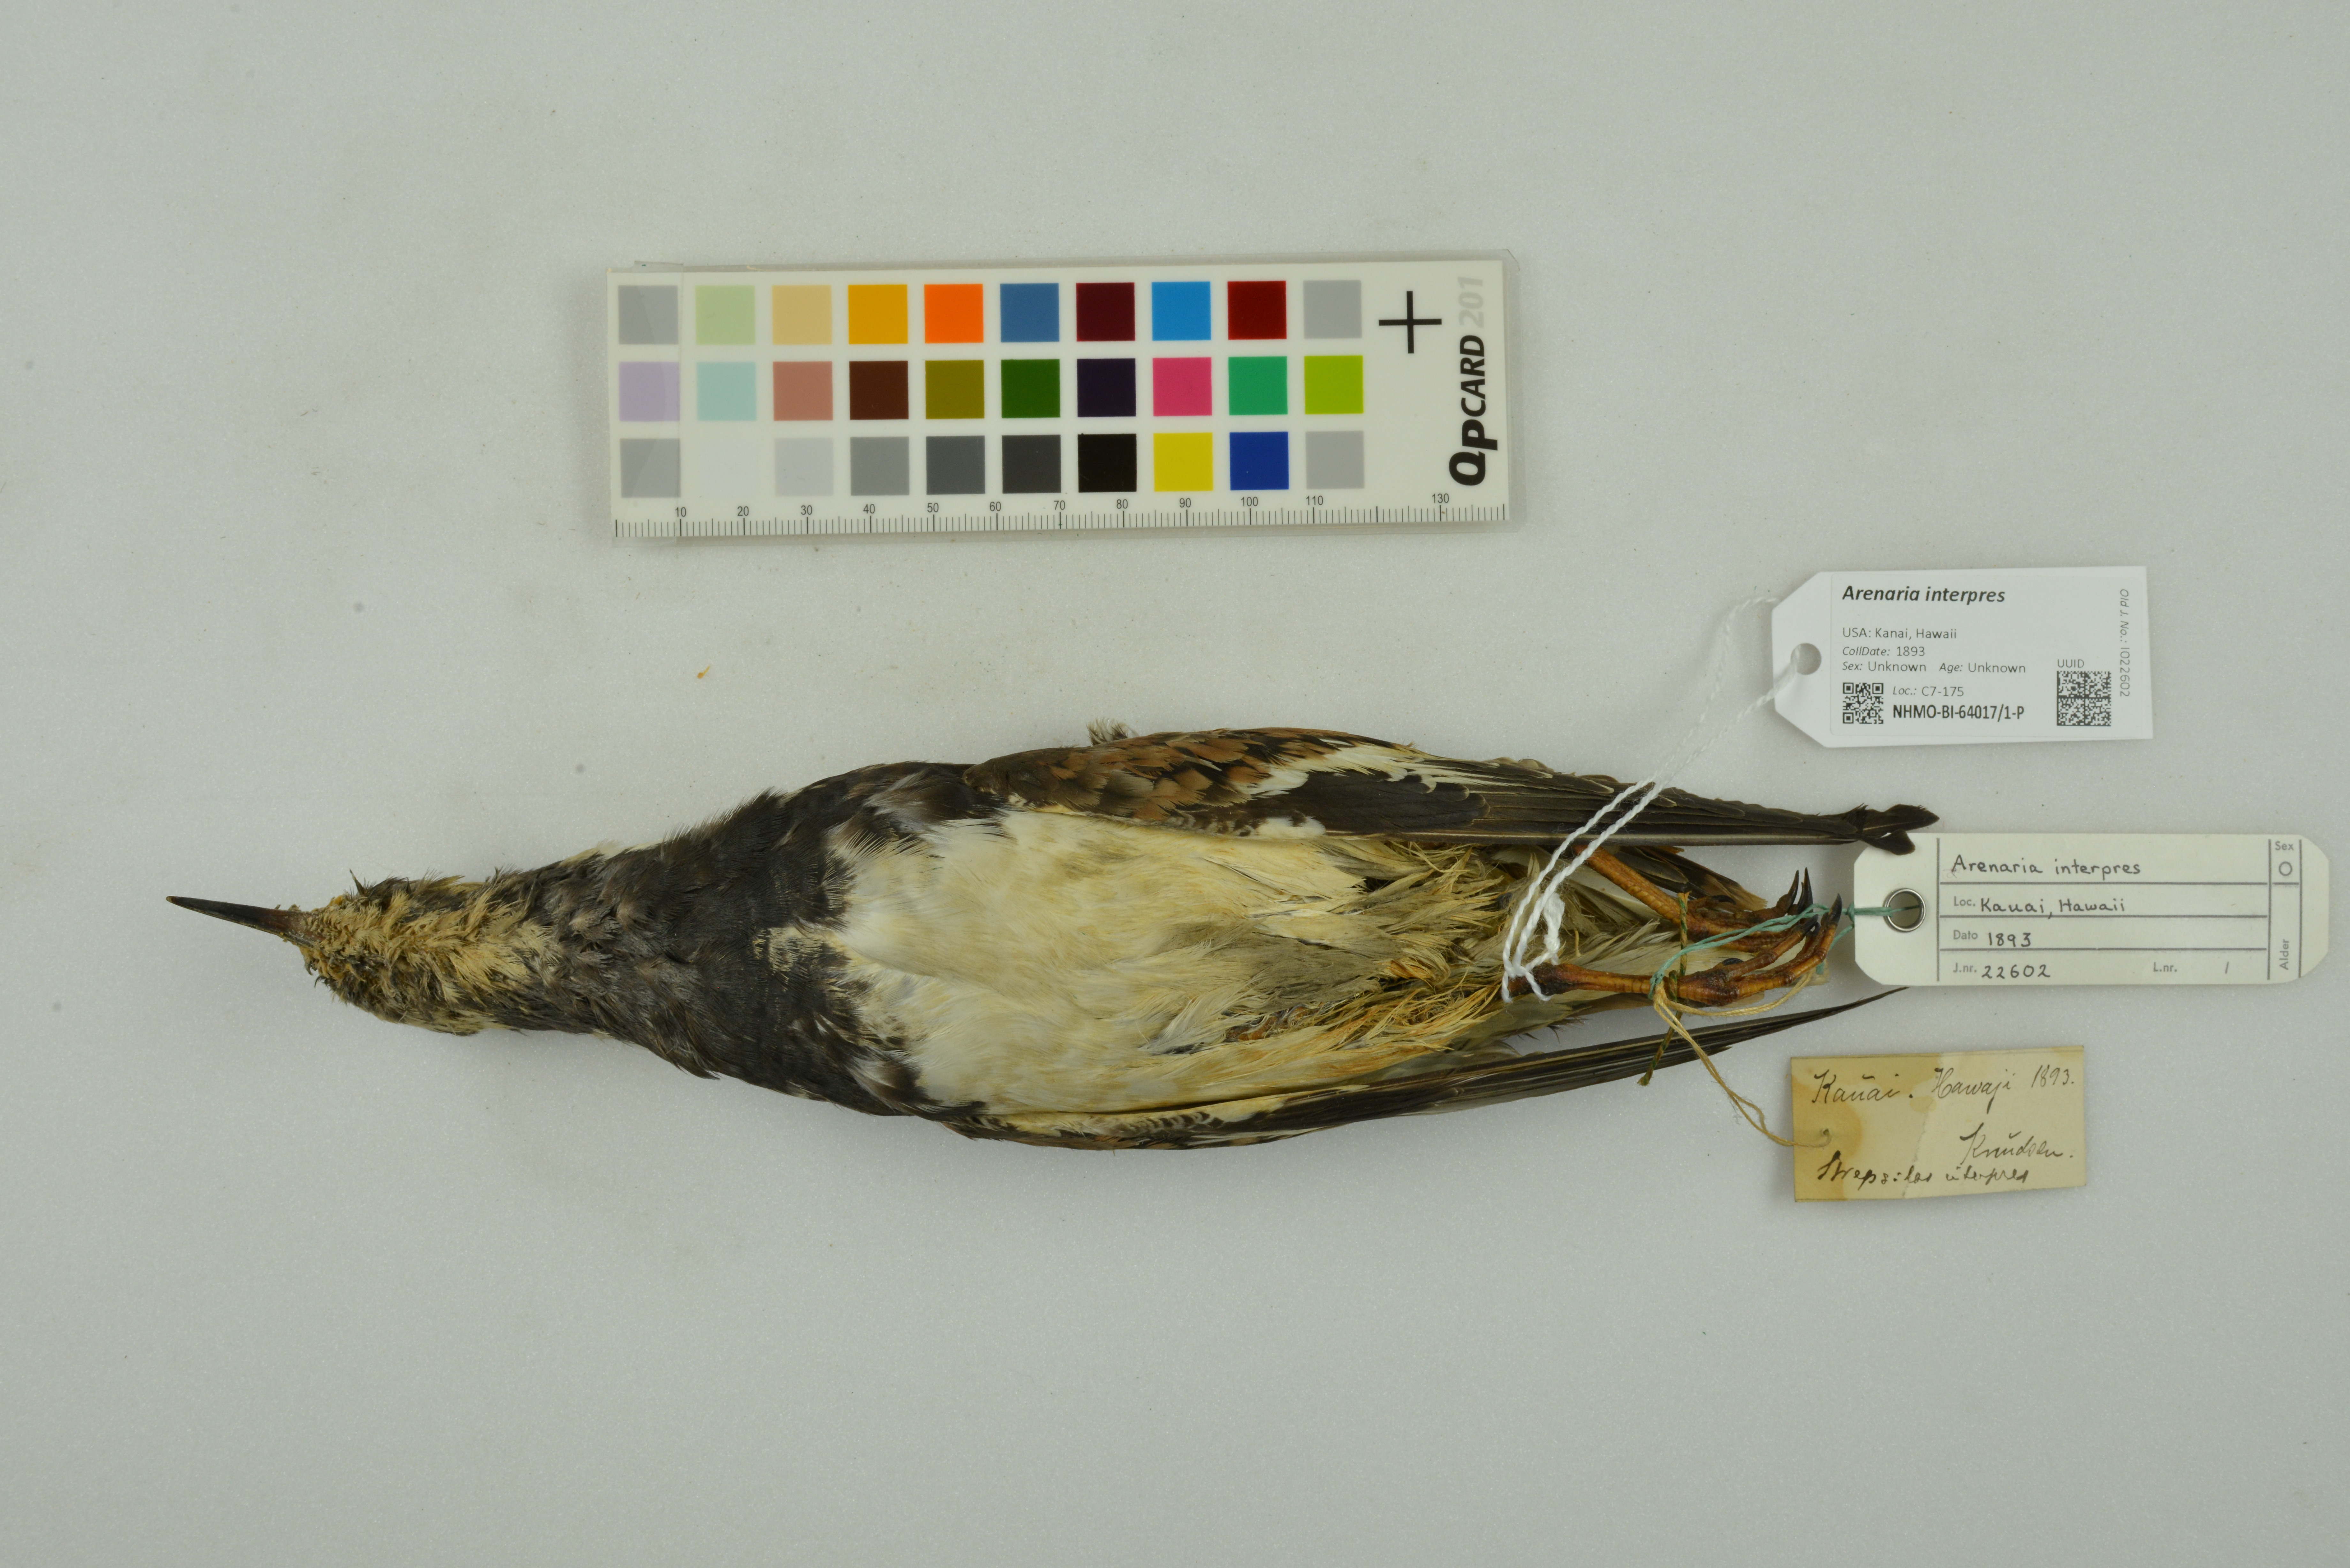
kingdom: Animalia
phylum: Chordata
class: Aves
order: Charadriiformes
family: Scolopacidae
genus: Arenaria
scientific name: Arenaria interpres
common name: Ruddy turnstone
